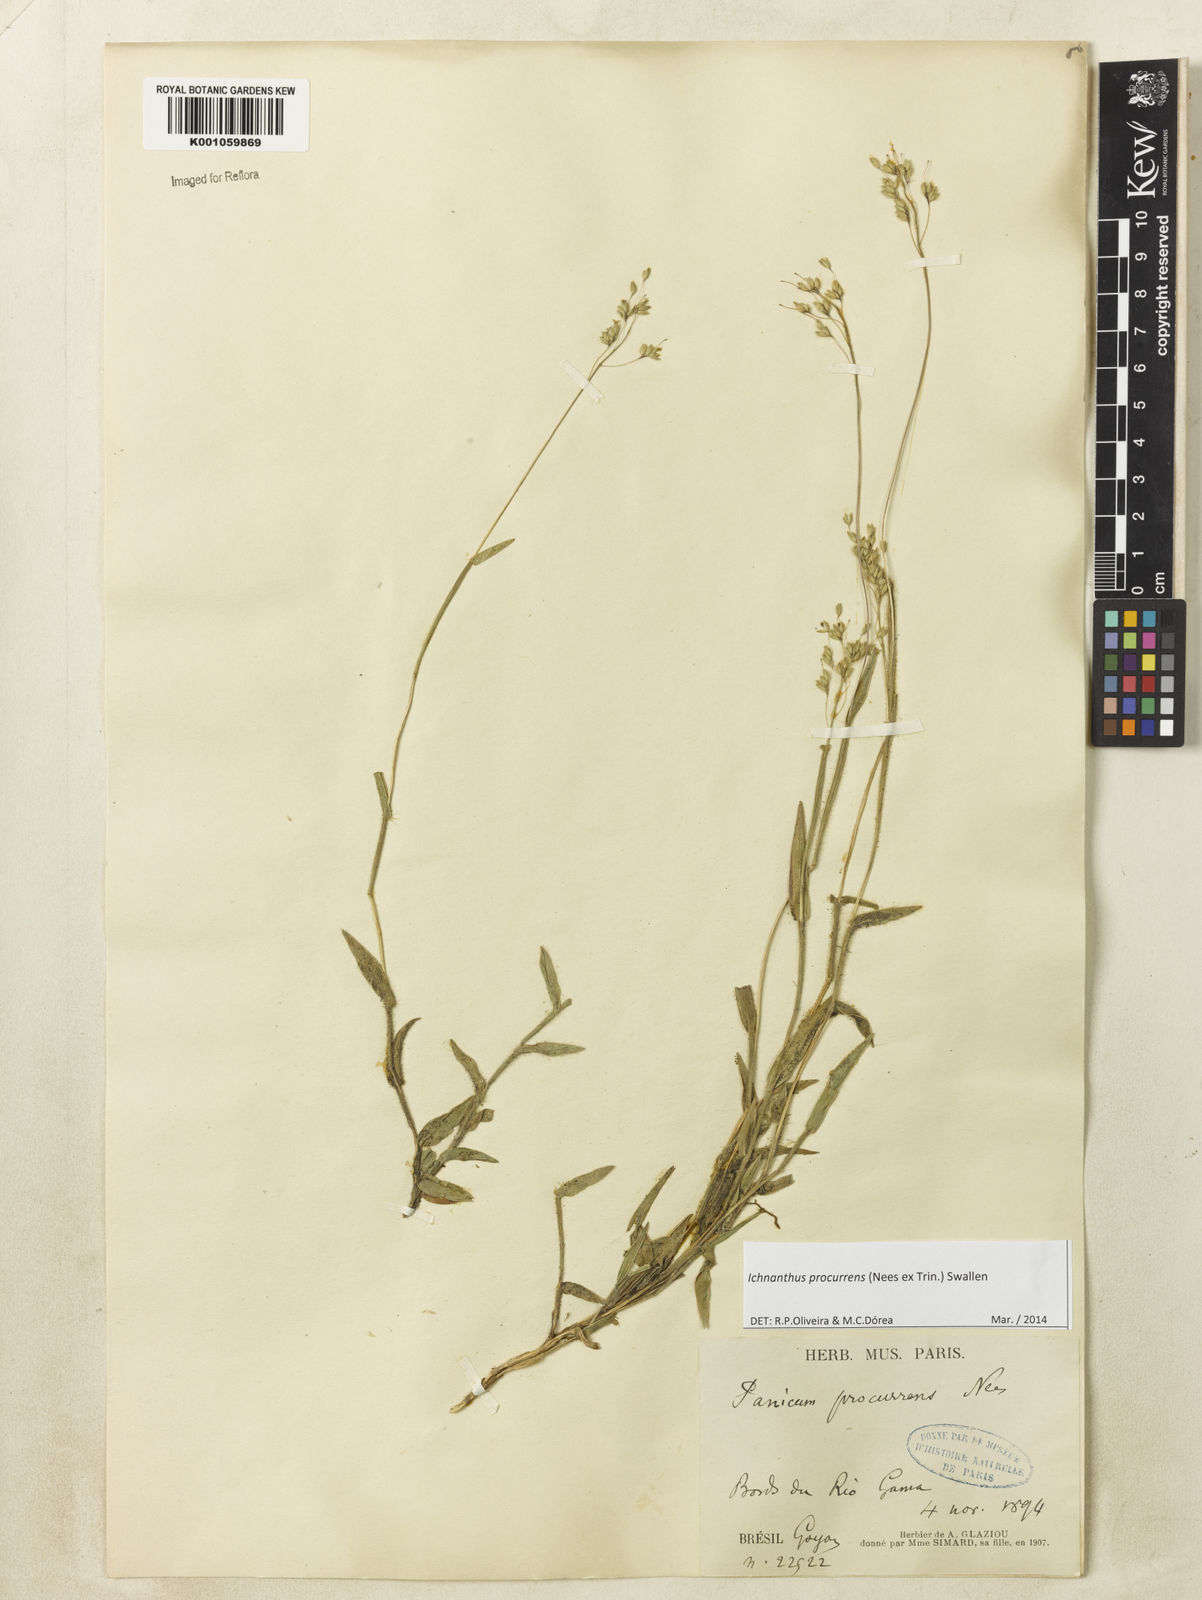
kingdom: Plantae
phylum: Tracheophyta
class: Liliopsida
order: Poales
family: Poaceae
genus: Oedochloa
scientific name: Oedochloa procurrens
